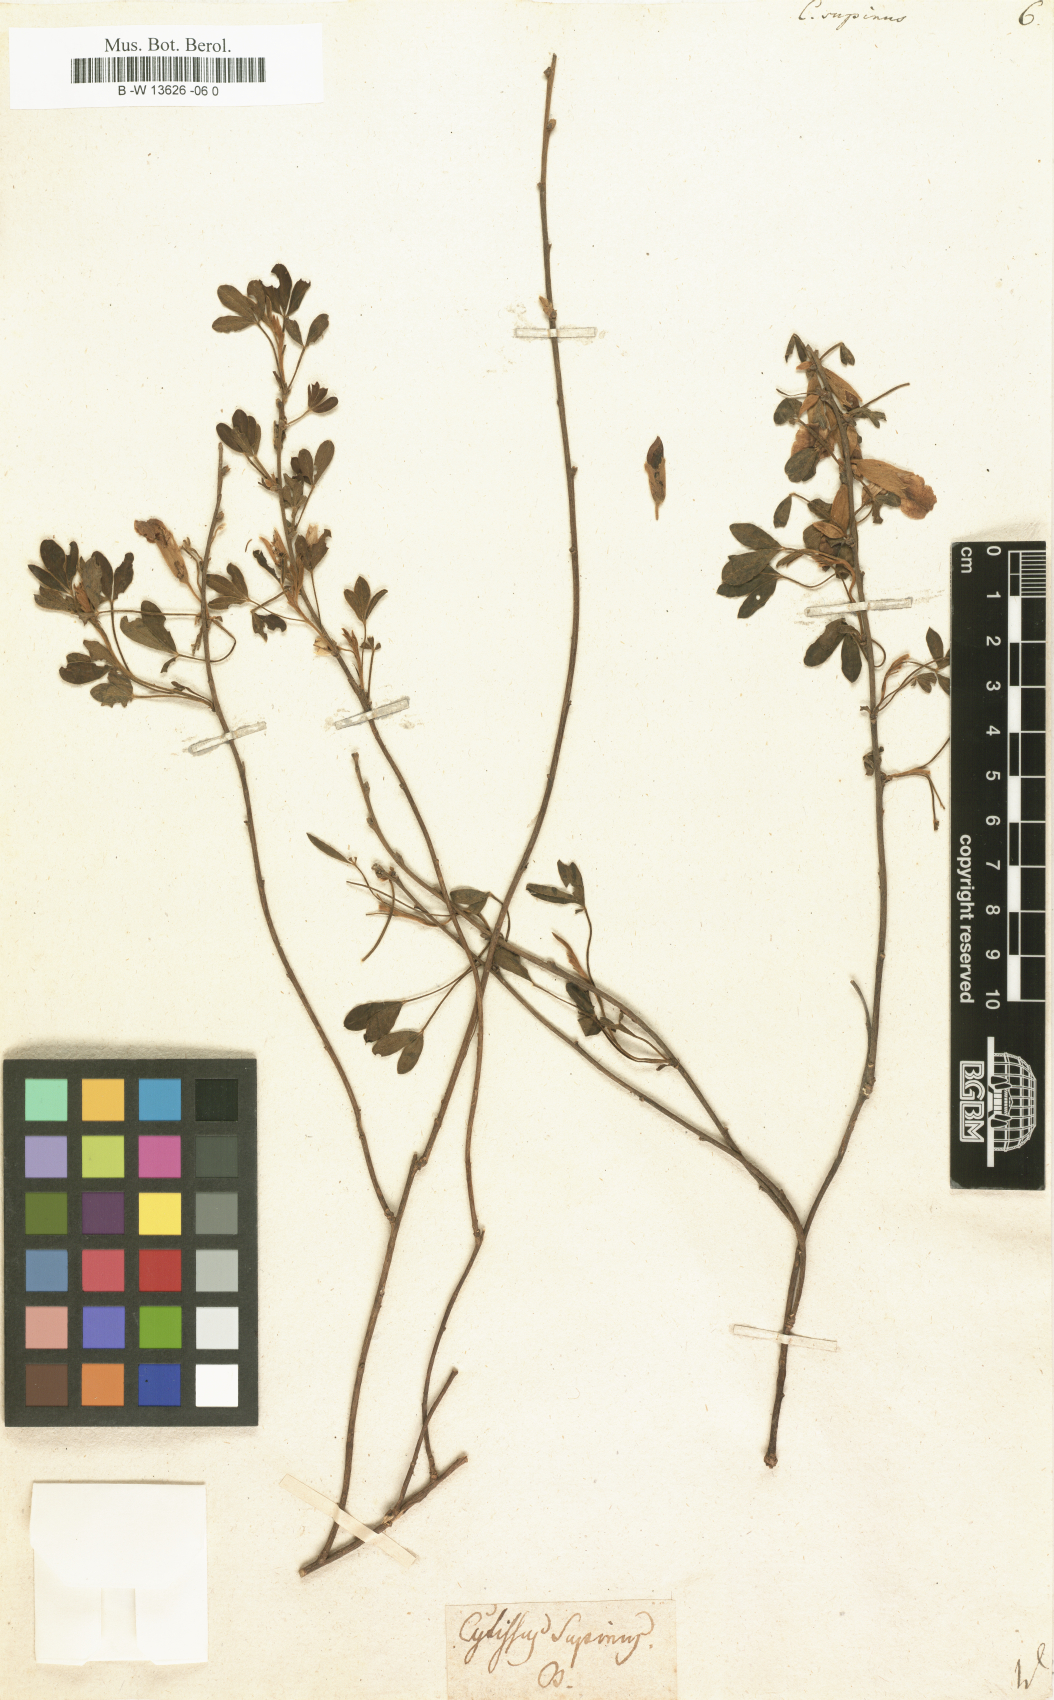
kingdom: Plantae
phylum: Tracheophyta
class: Magnoliopsida
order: Fabales
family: Fabaceae
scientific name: Fabaceae
